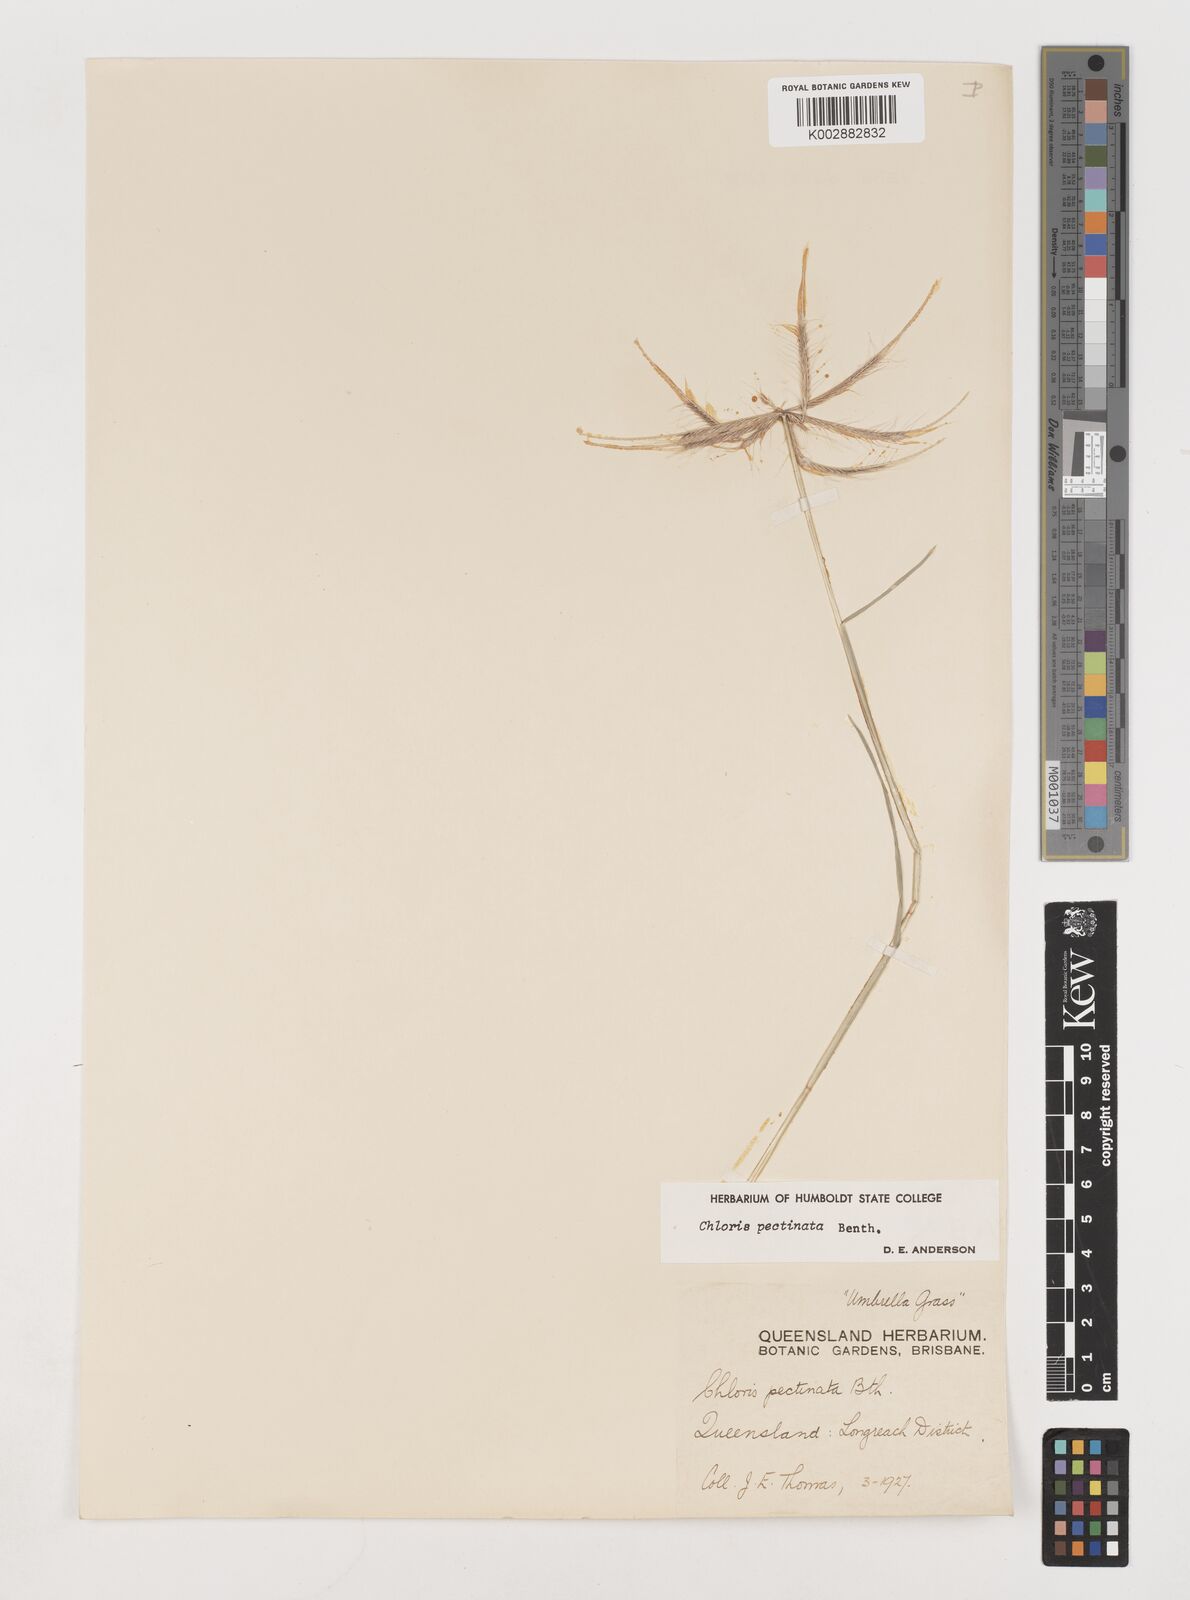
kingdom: Plantae
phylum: Tracheophyta
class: Liliopsida
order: Poales
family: Poaceae
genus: Chloris
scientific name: Chloris pectinata
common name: Comb windmill grass
